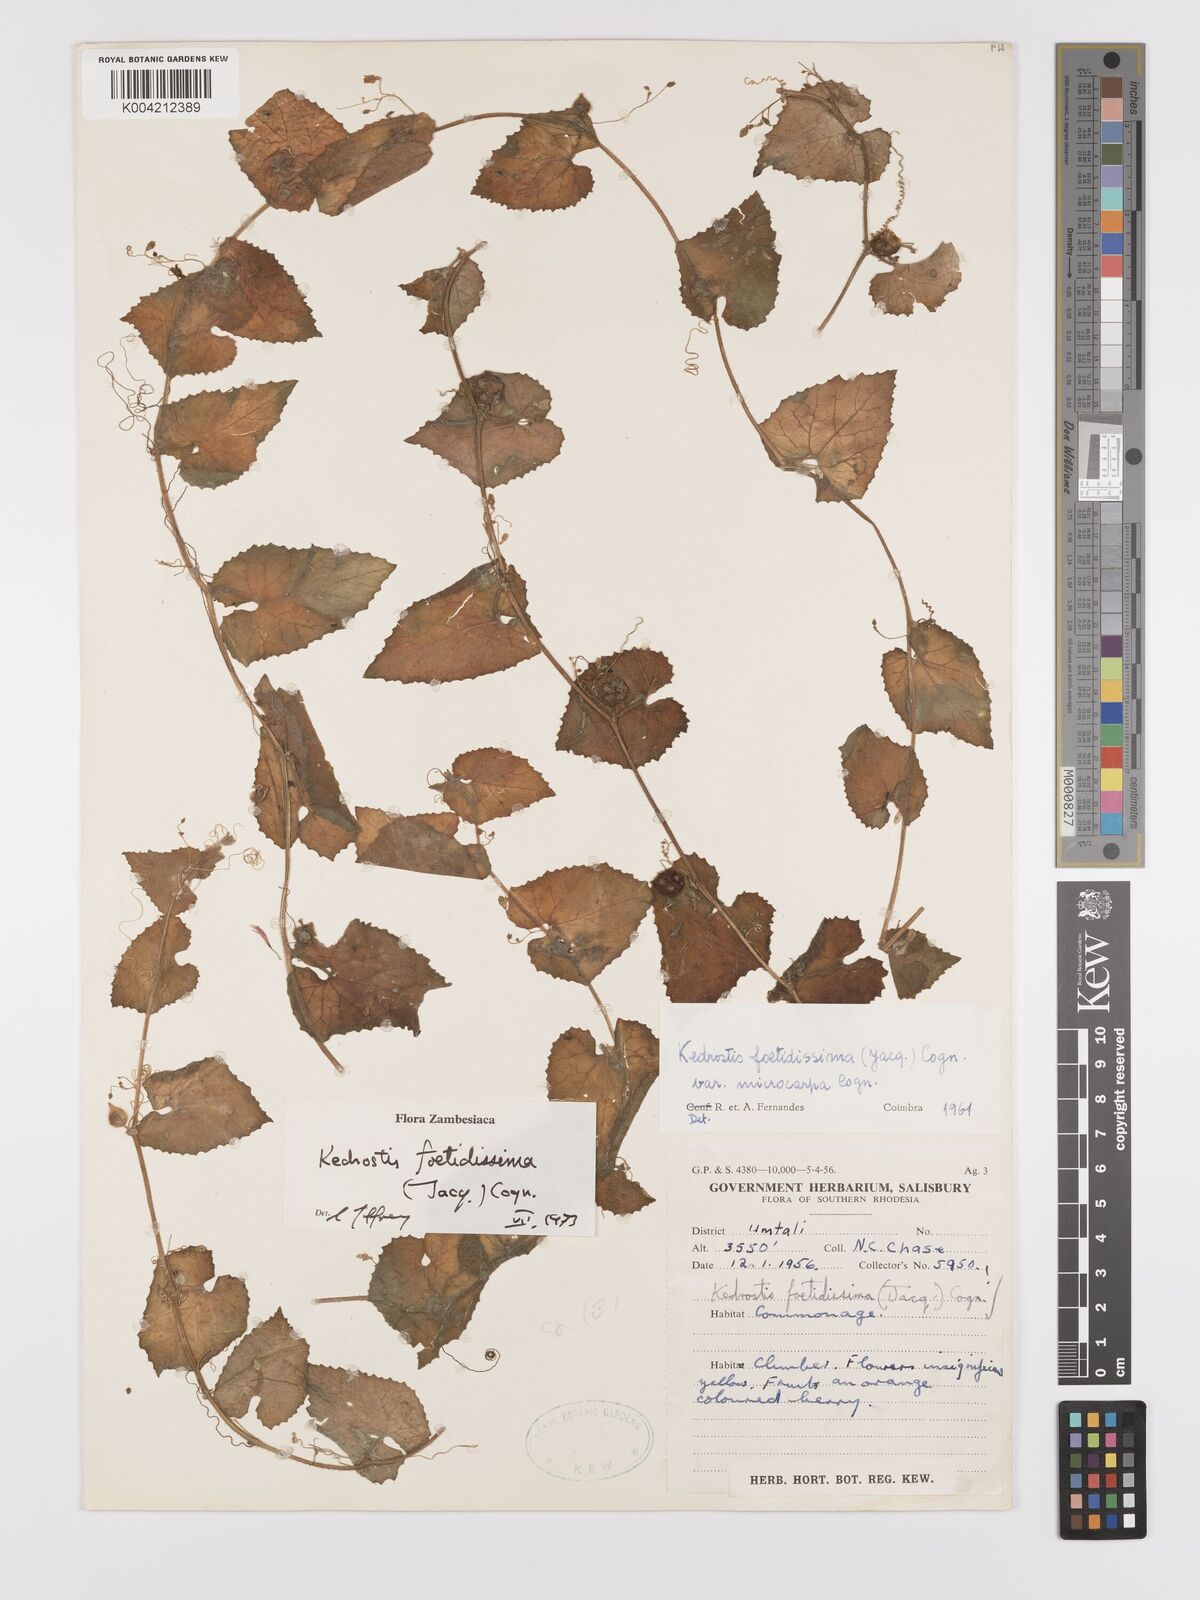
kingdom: Plantae
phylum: Tracheophyta
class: Magnoliopsida
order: Cucurbitales
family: Cucurbitaceae
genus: Kedrostis
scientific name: Kedrostis foetidissima
